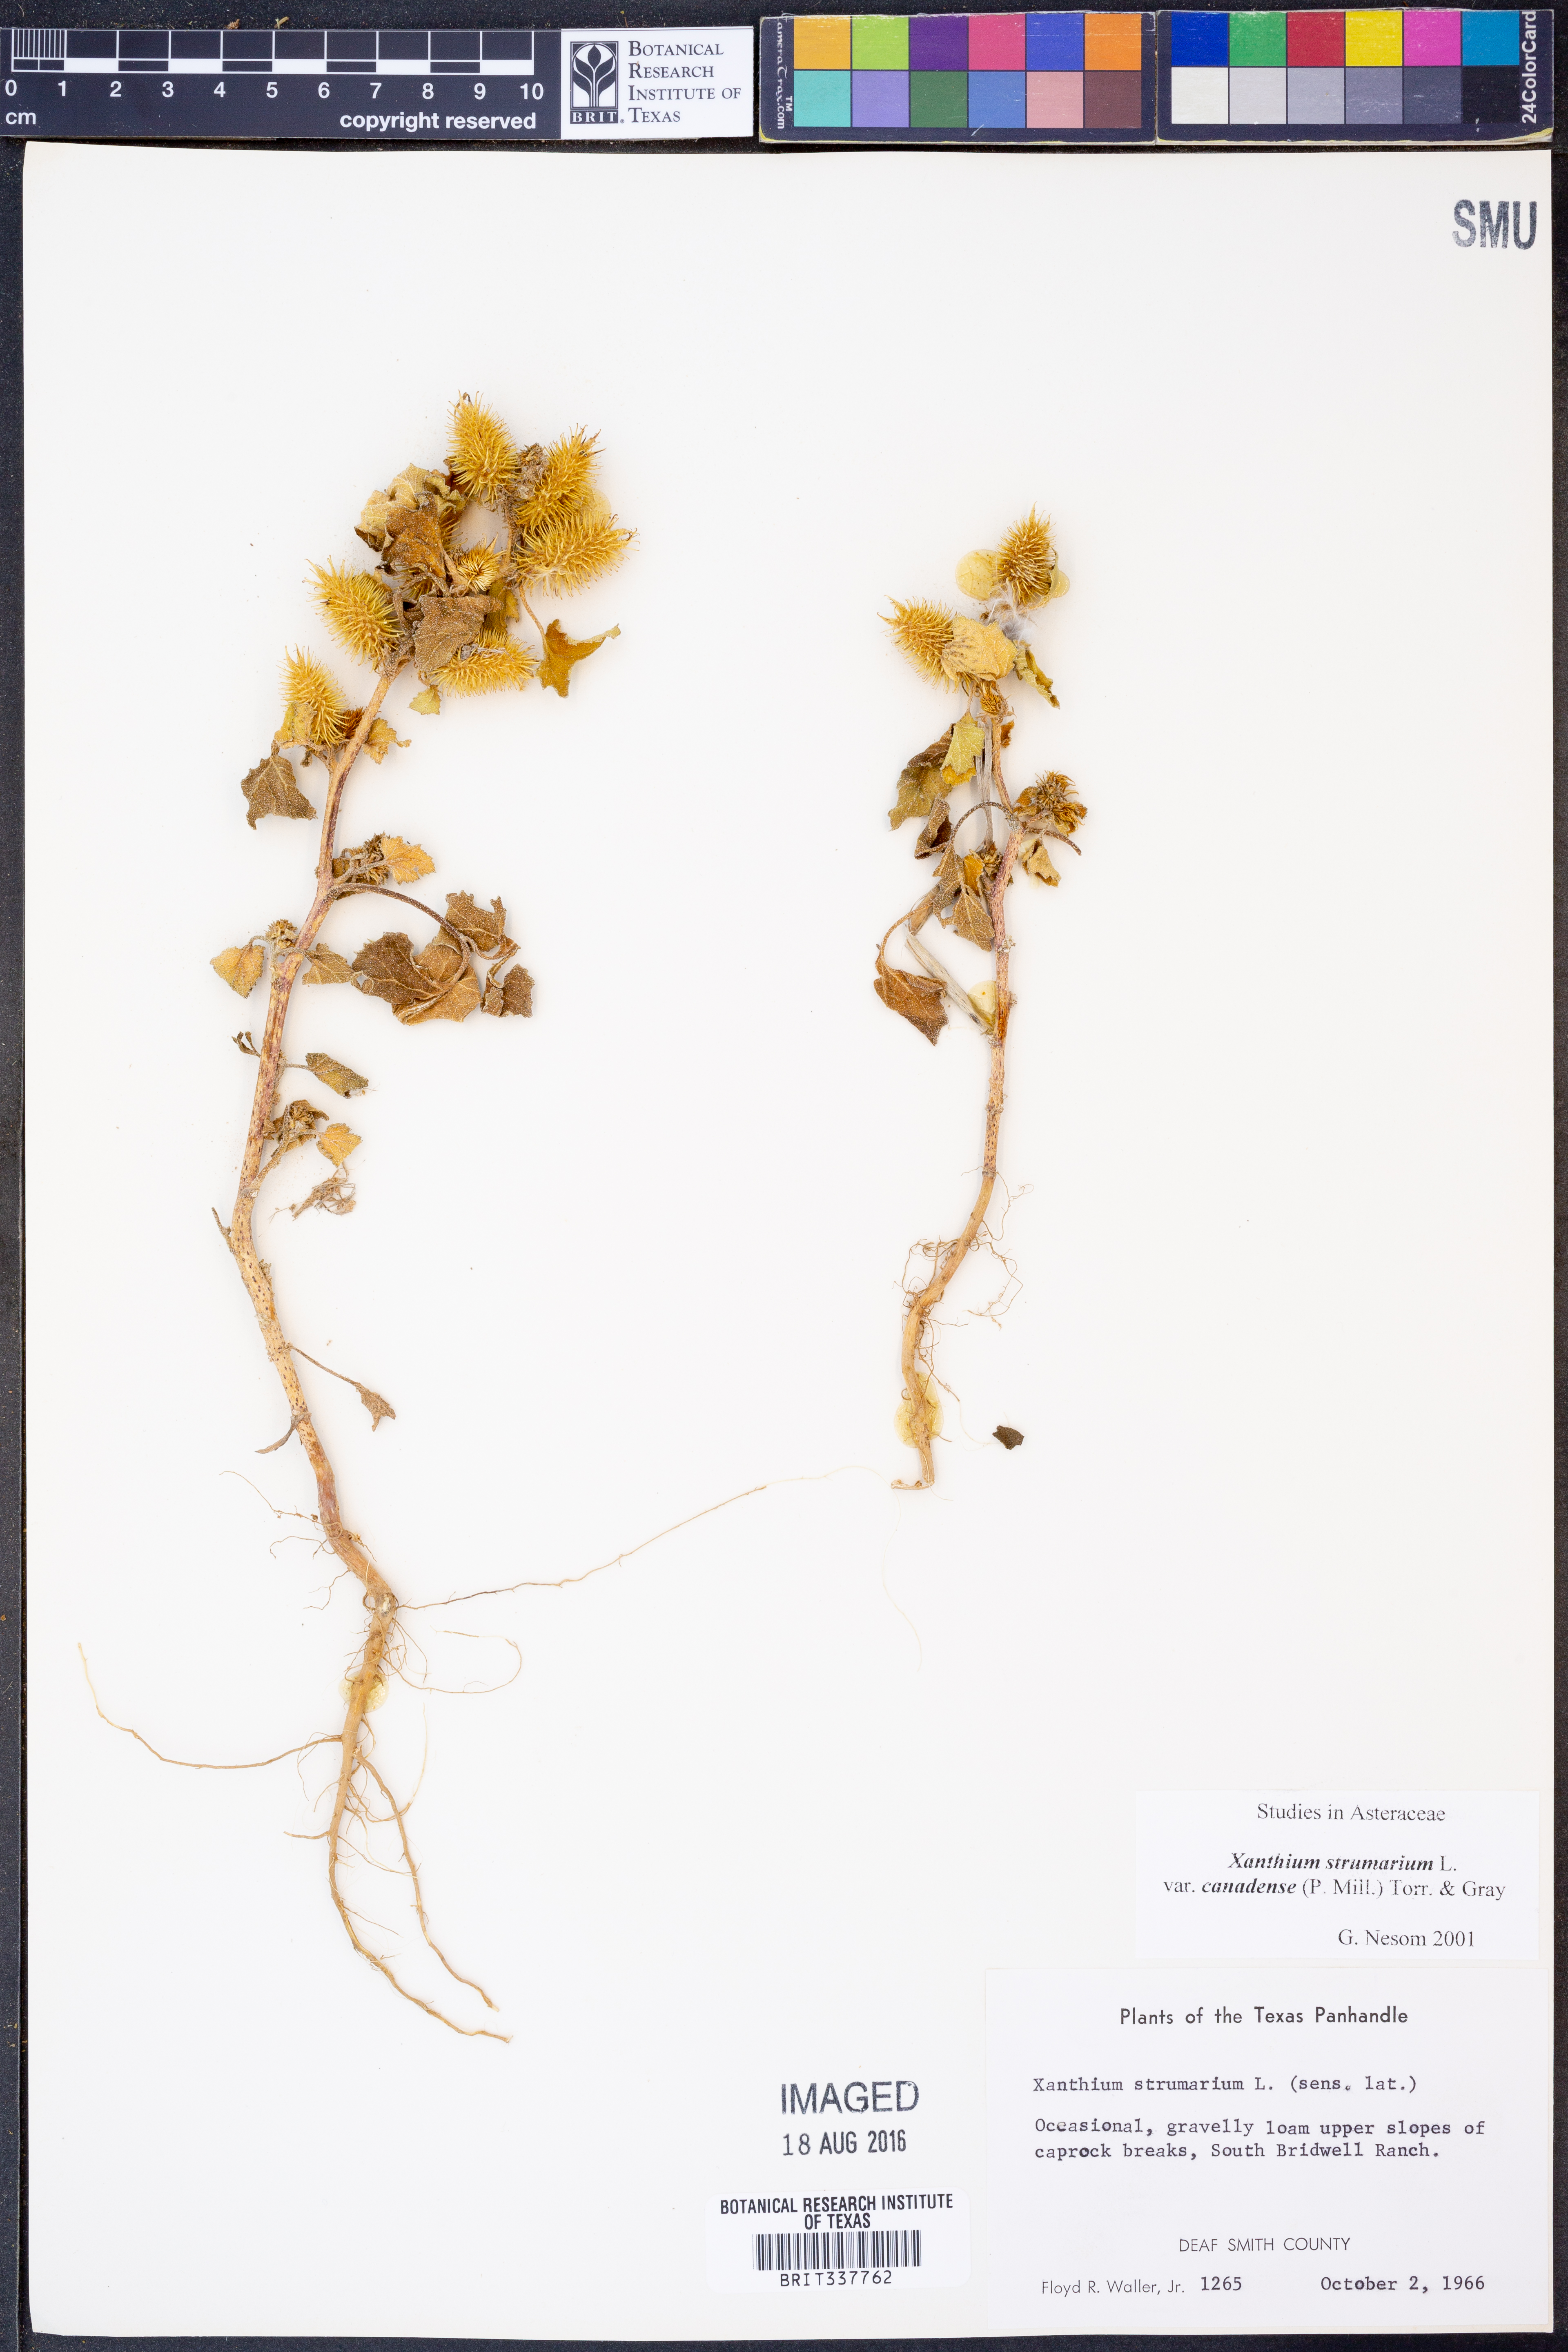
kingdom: Plantae
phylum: Tracheophyta
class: Magnoliopsida
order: Asterales
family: Asteraceae
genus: Xanthium
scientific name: Xanthium orientale
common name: Californian burr
